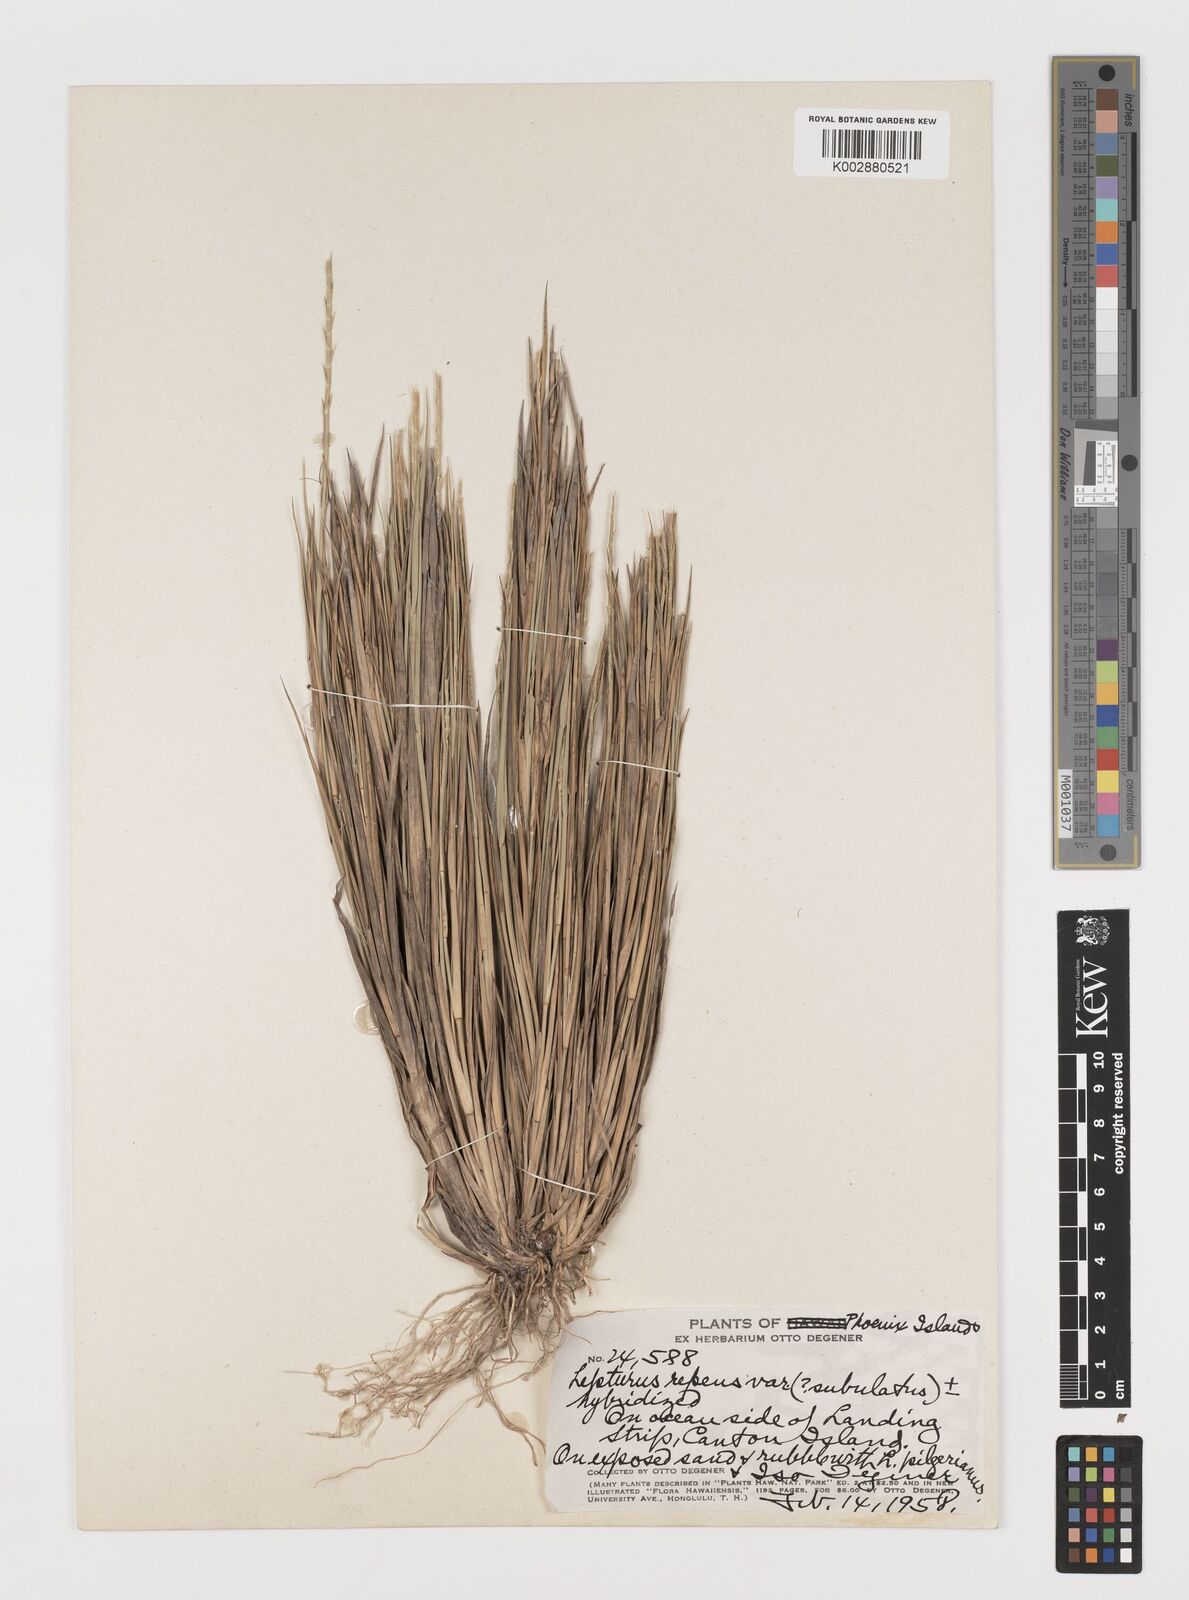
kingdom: Plantae
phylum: Tracheophyta
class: Liliopsida
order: Poales
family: Poaceae
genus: Lepturus
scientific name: Lepturus repens
